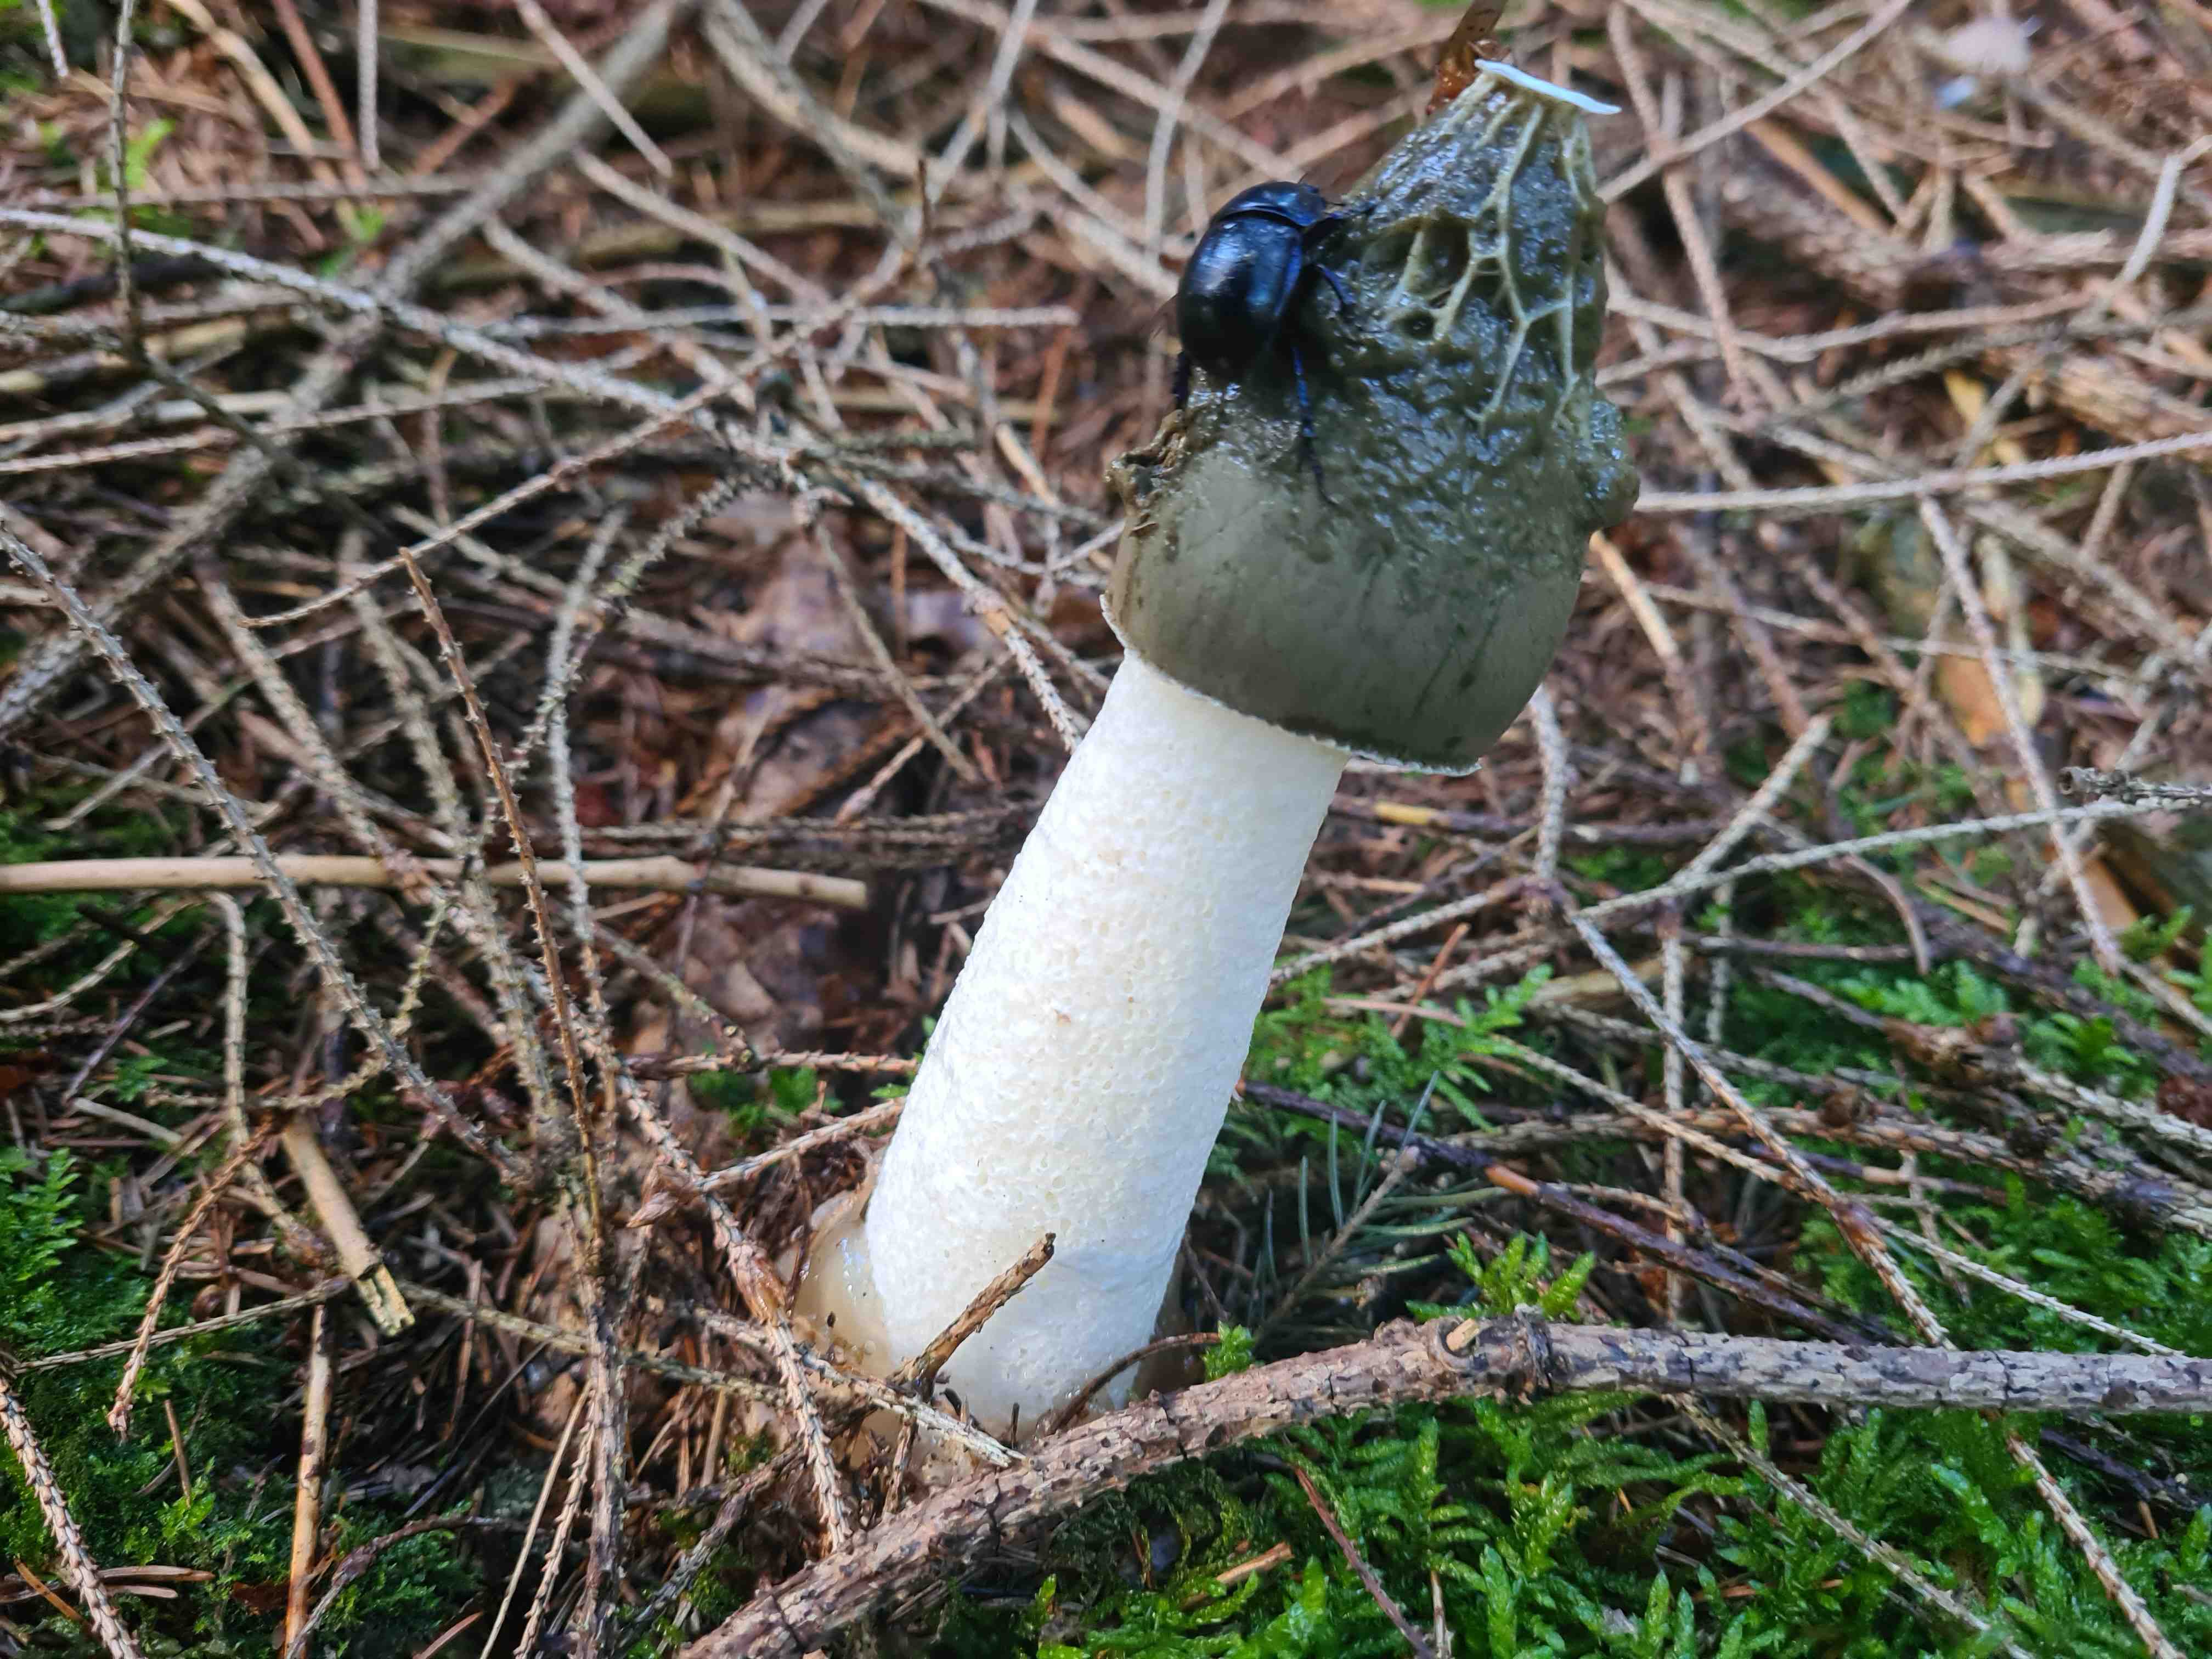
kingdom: Fungi
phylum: Basidiomycota
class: Agaricomycetes
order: Phallales
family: Phallaceae
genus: Phallus
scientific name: Phallus impudicus
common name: almindelig stinksvamp
